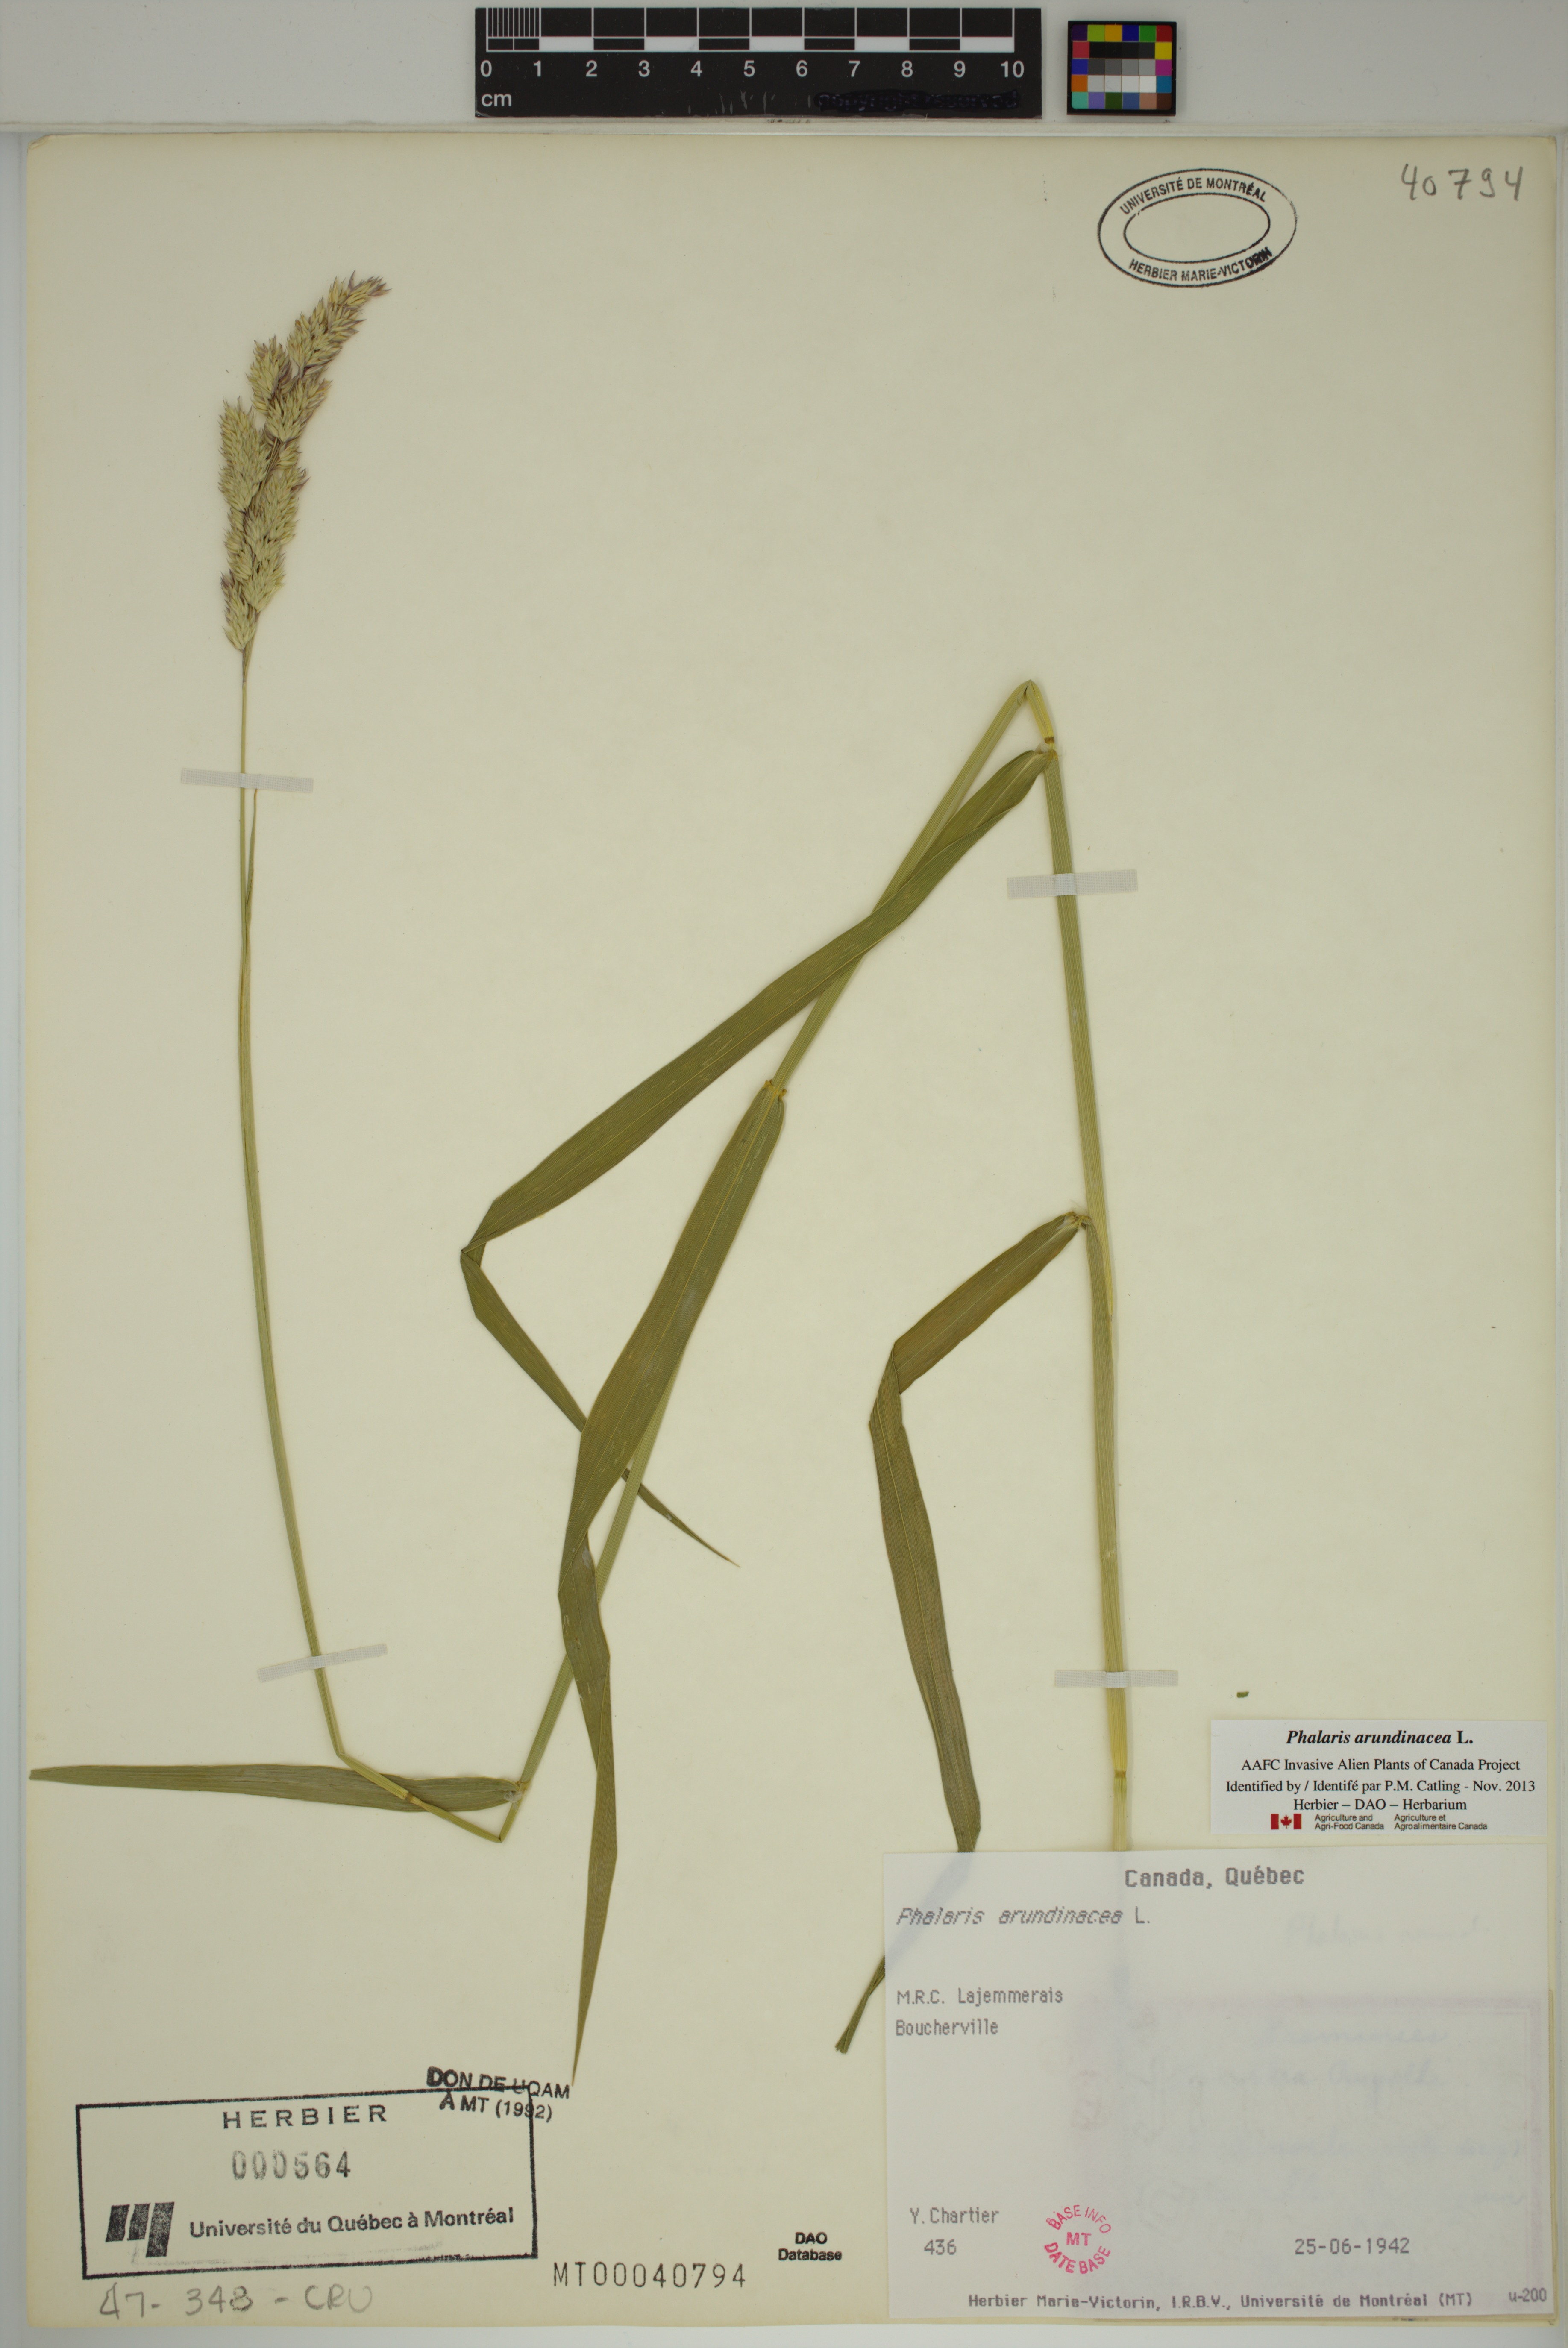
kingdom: Plantae
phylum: Tracheophyta
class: Liliopsida
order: Poales
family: Poaceae
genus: Phalaris
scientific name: Phalaris arundinacea
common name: Reed canary-grass
